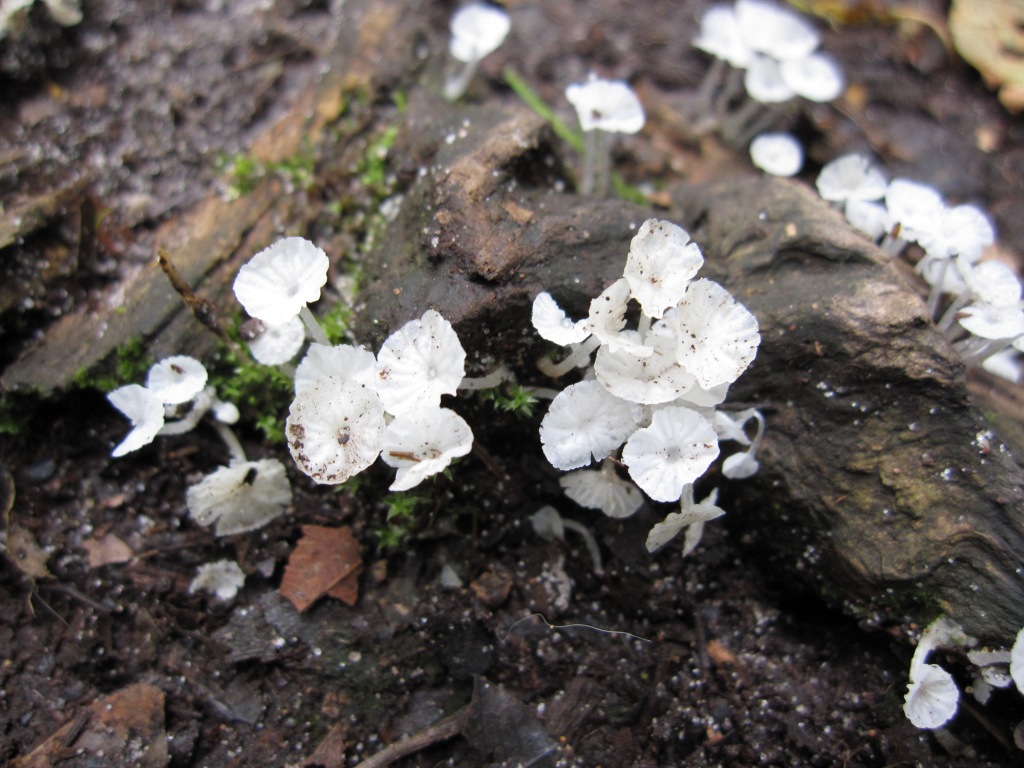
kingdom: Fungi
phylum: Basidiomycota
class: Agaricomycetes
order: Agaricales
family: Tricholomataceae
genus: Delicatula
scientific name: Delicatula integrella
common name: slørhuesvamp
